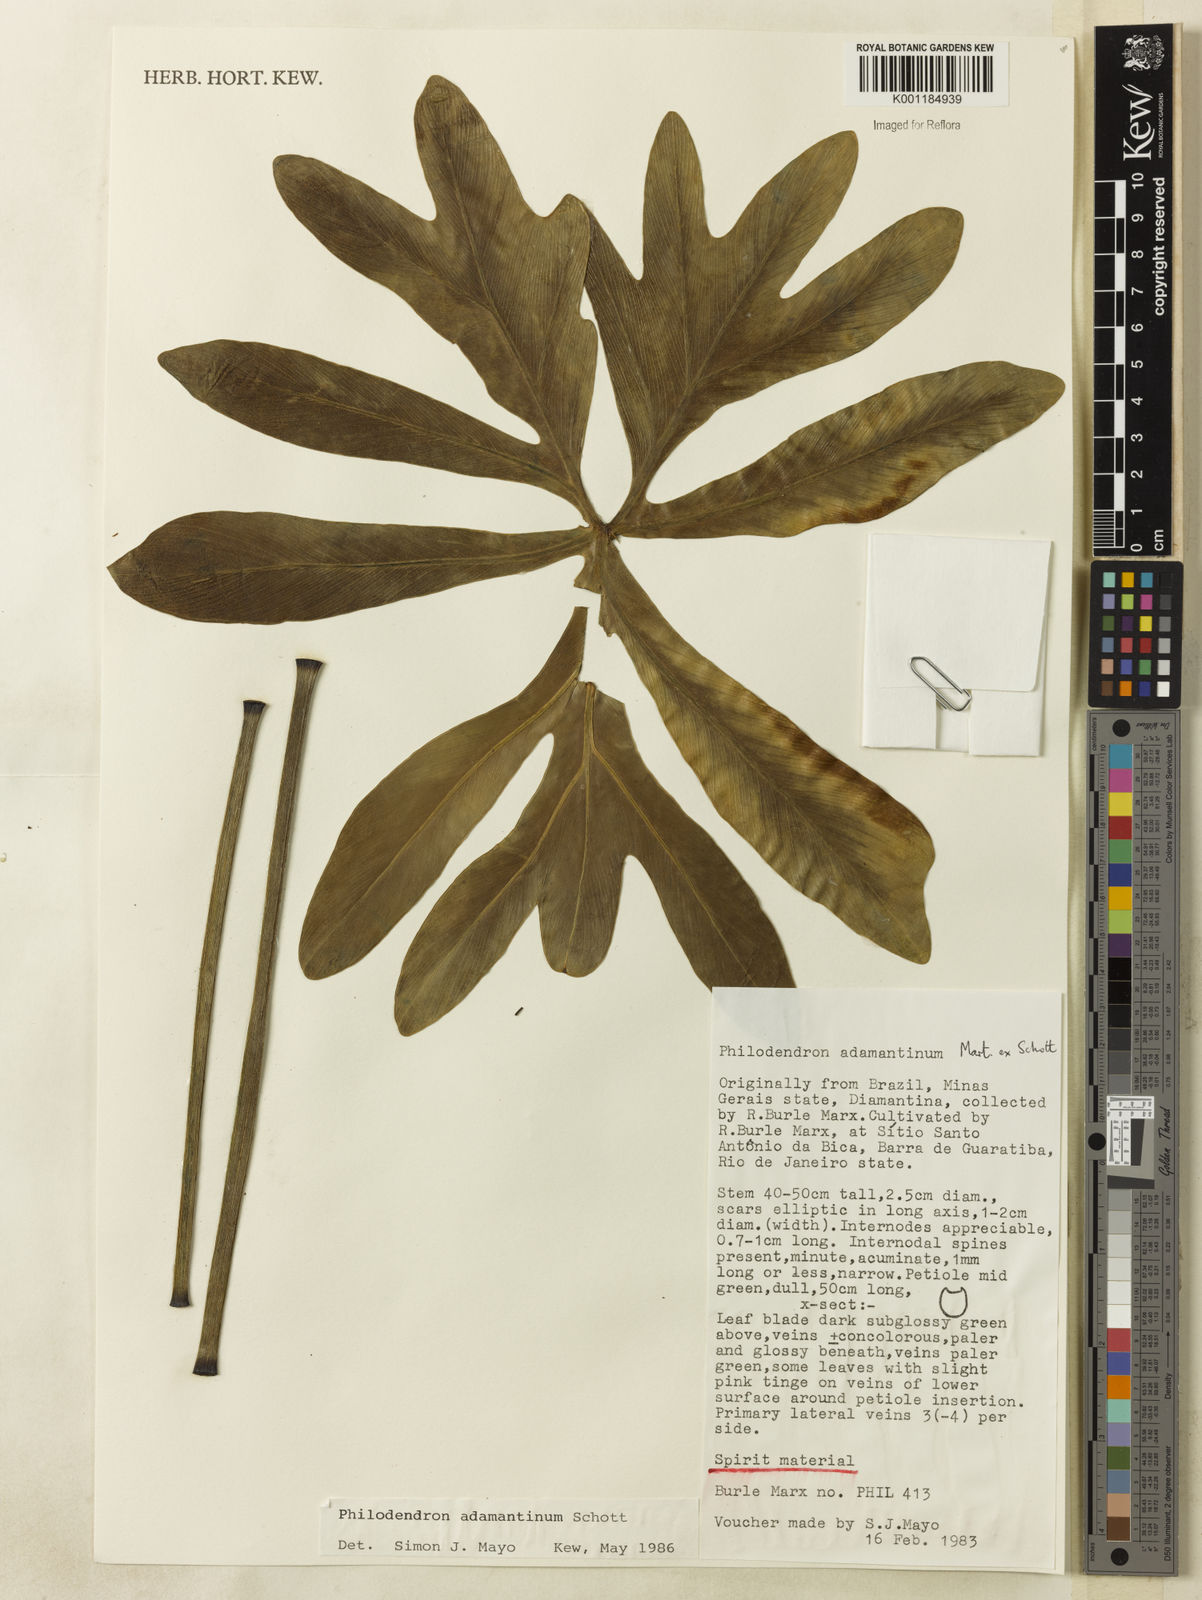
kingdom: Plantae
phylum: Tracheophyta
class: Liliopsida
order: Alismatales
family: Araceae
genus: Thaumatophyllum
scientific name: Thaumatophyllum adamantinum
